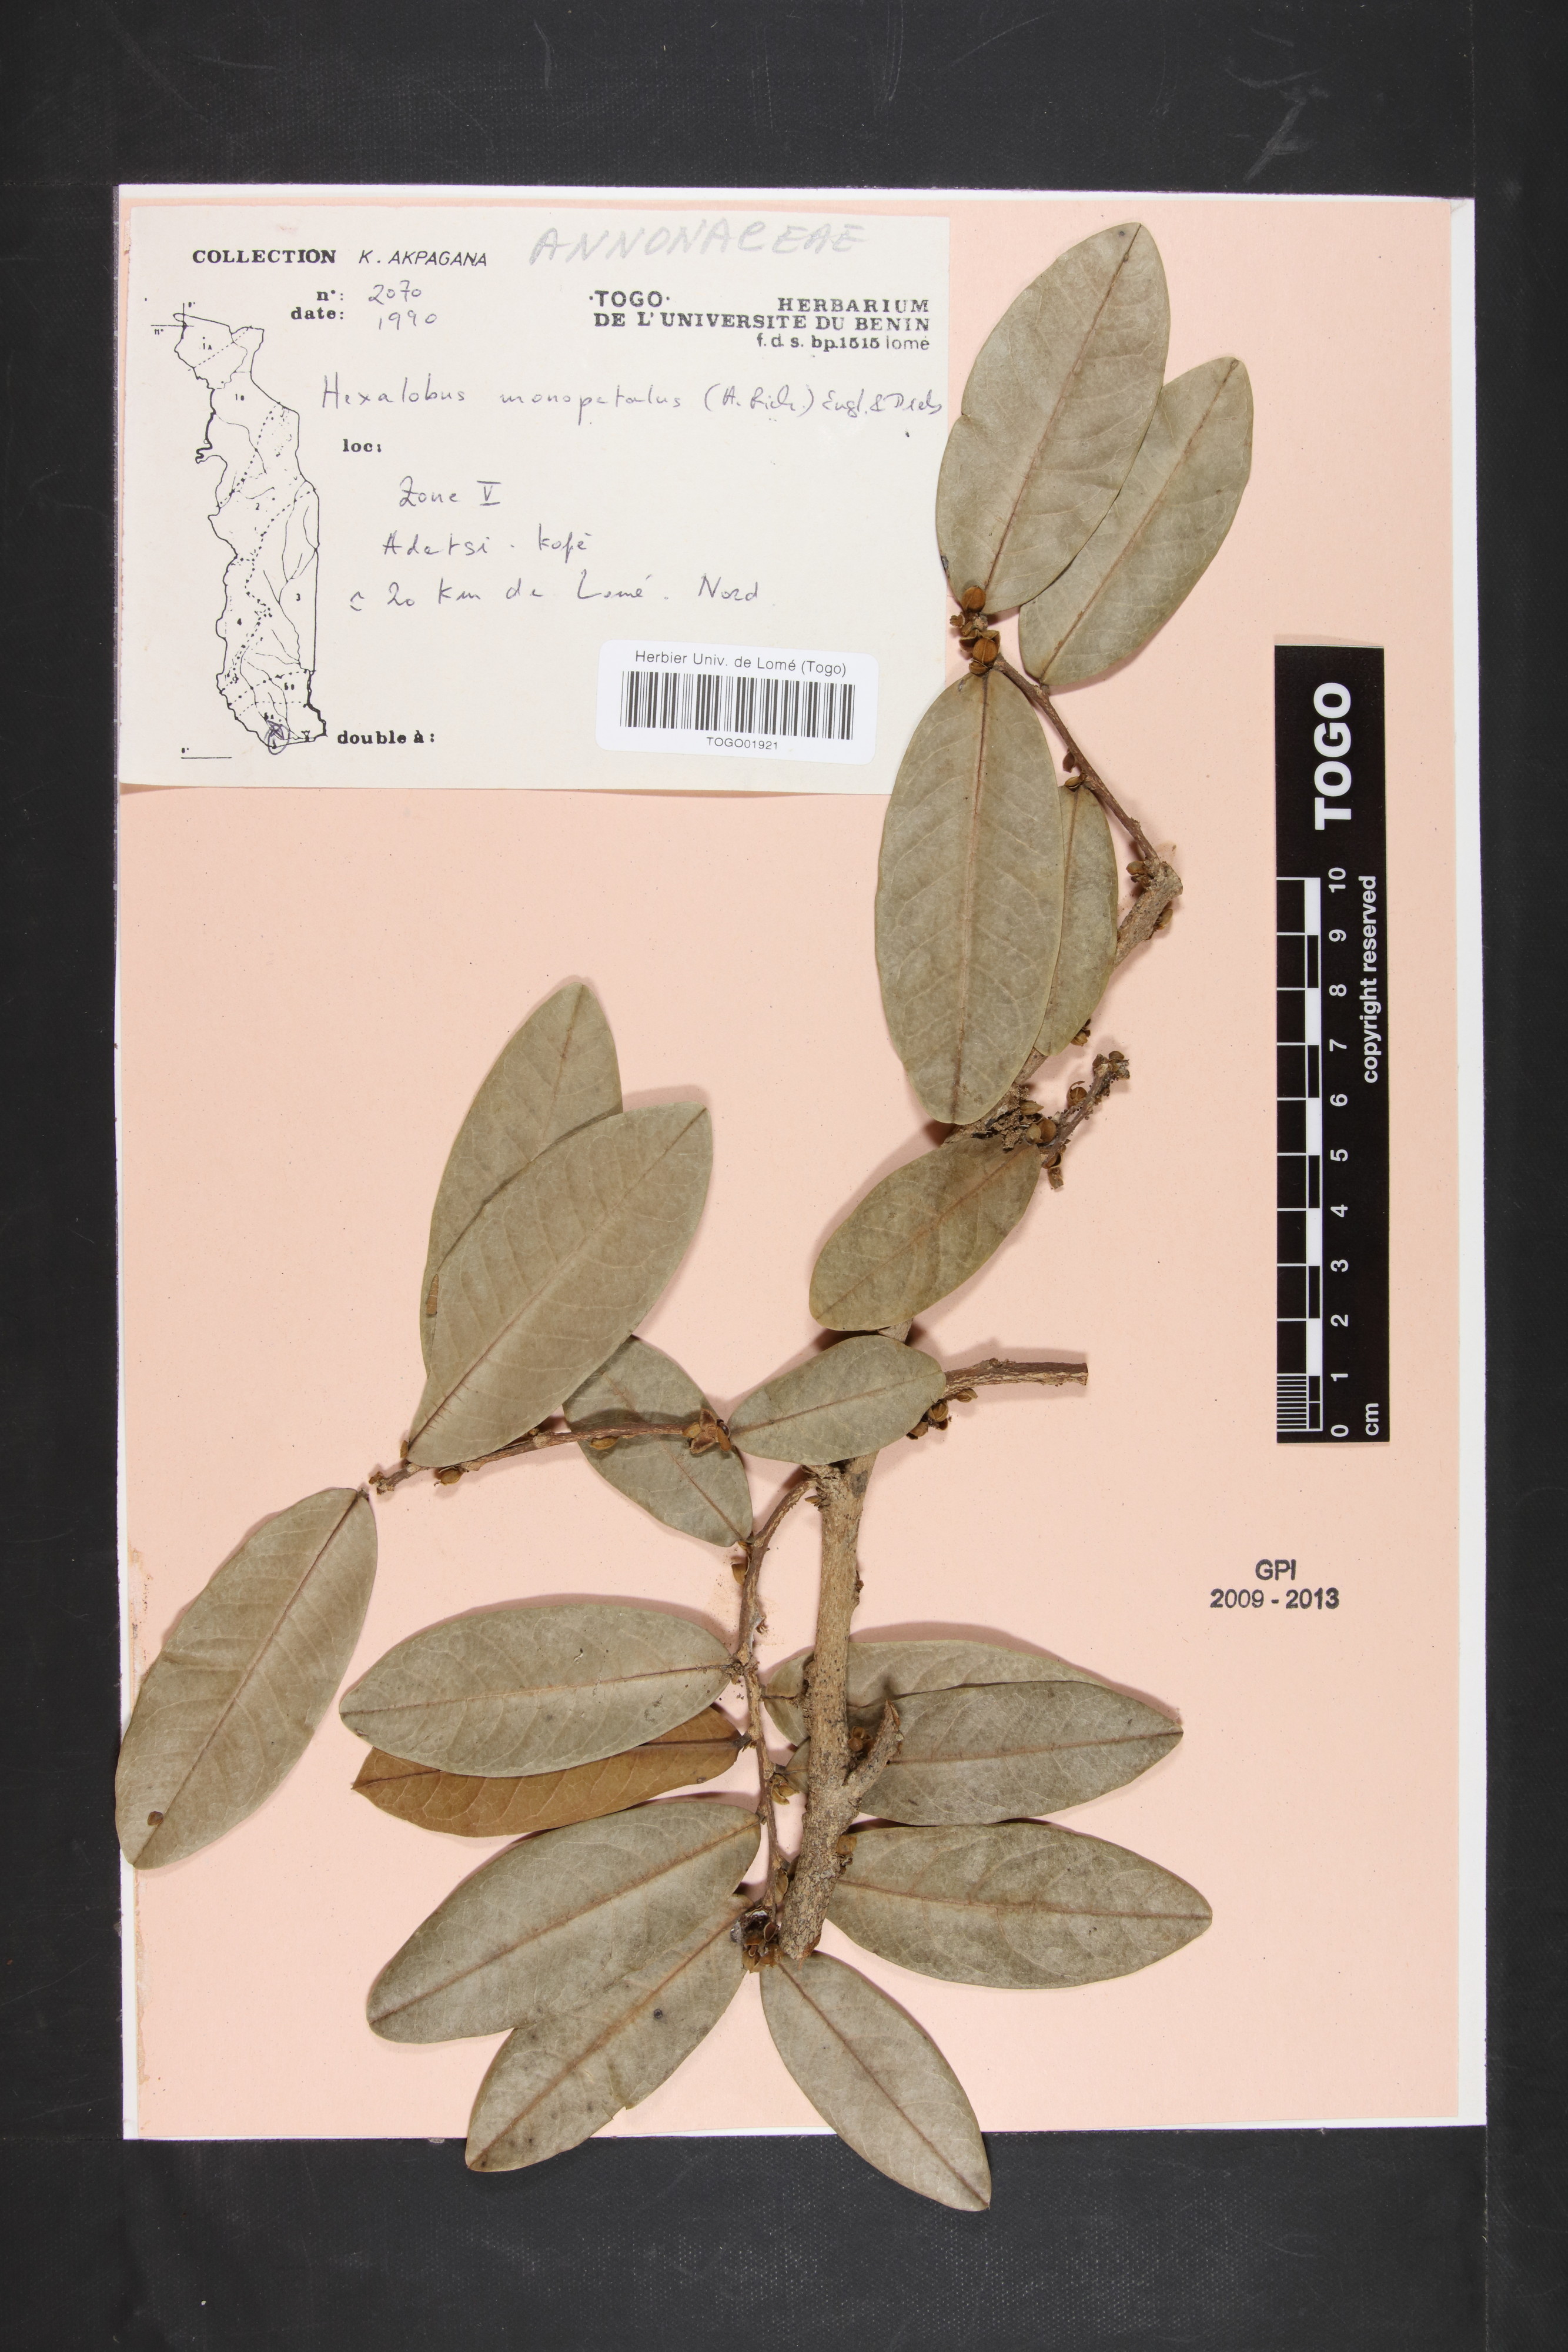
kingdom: Plantae
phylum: Tracheophyta
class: Magnoliopsida
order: Magnoliales
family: Annonaceae
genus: Hexalobus
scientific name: Hexalobus monopetalus
